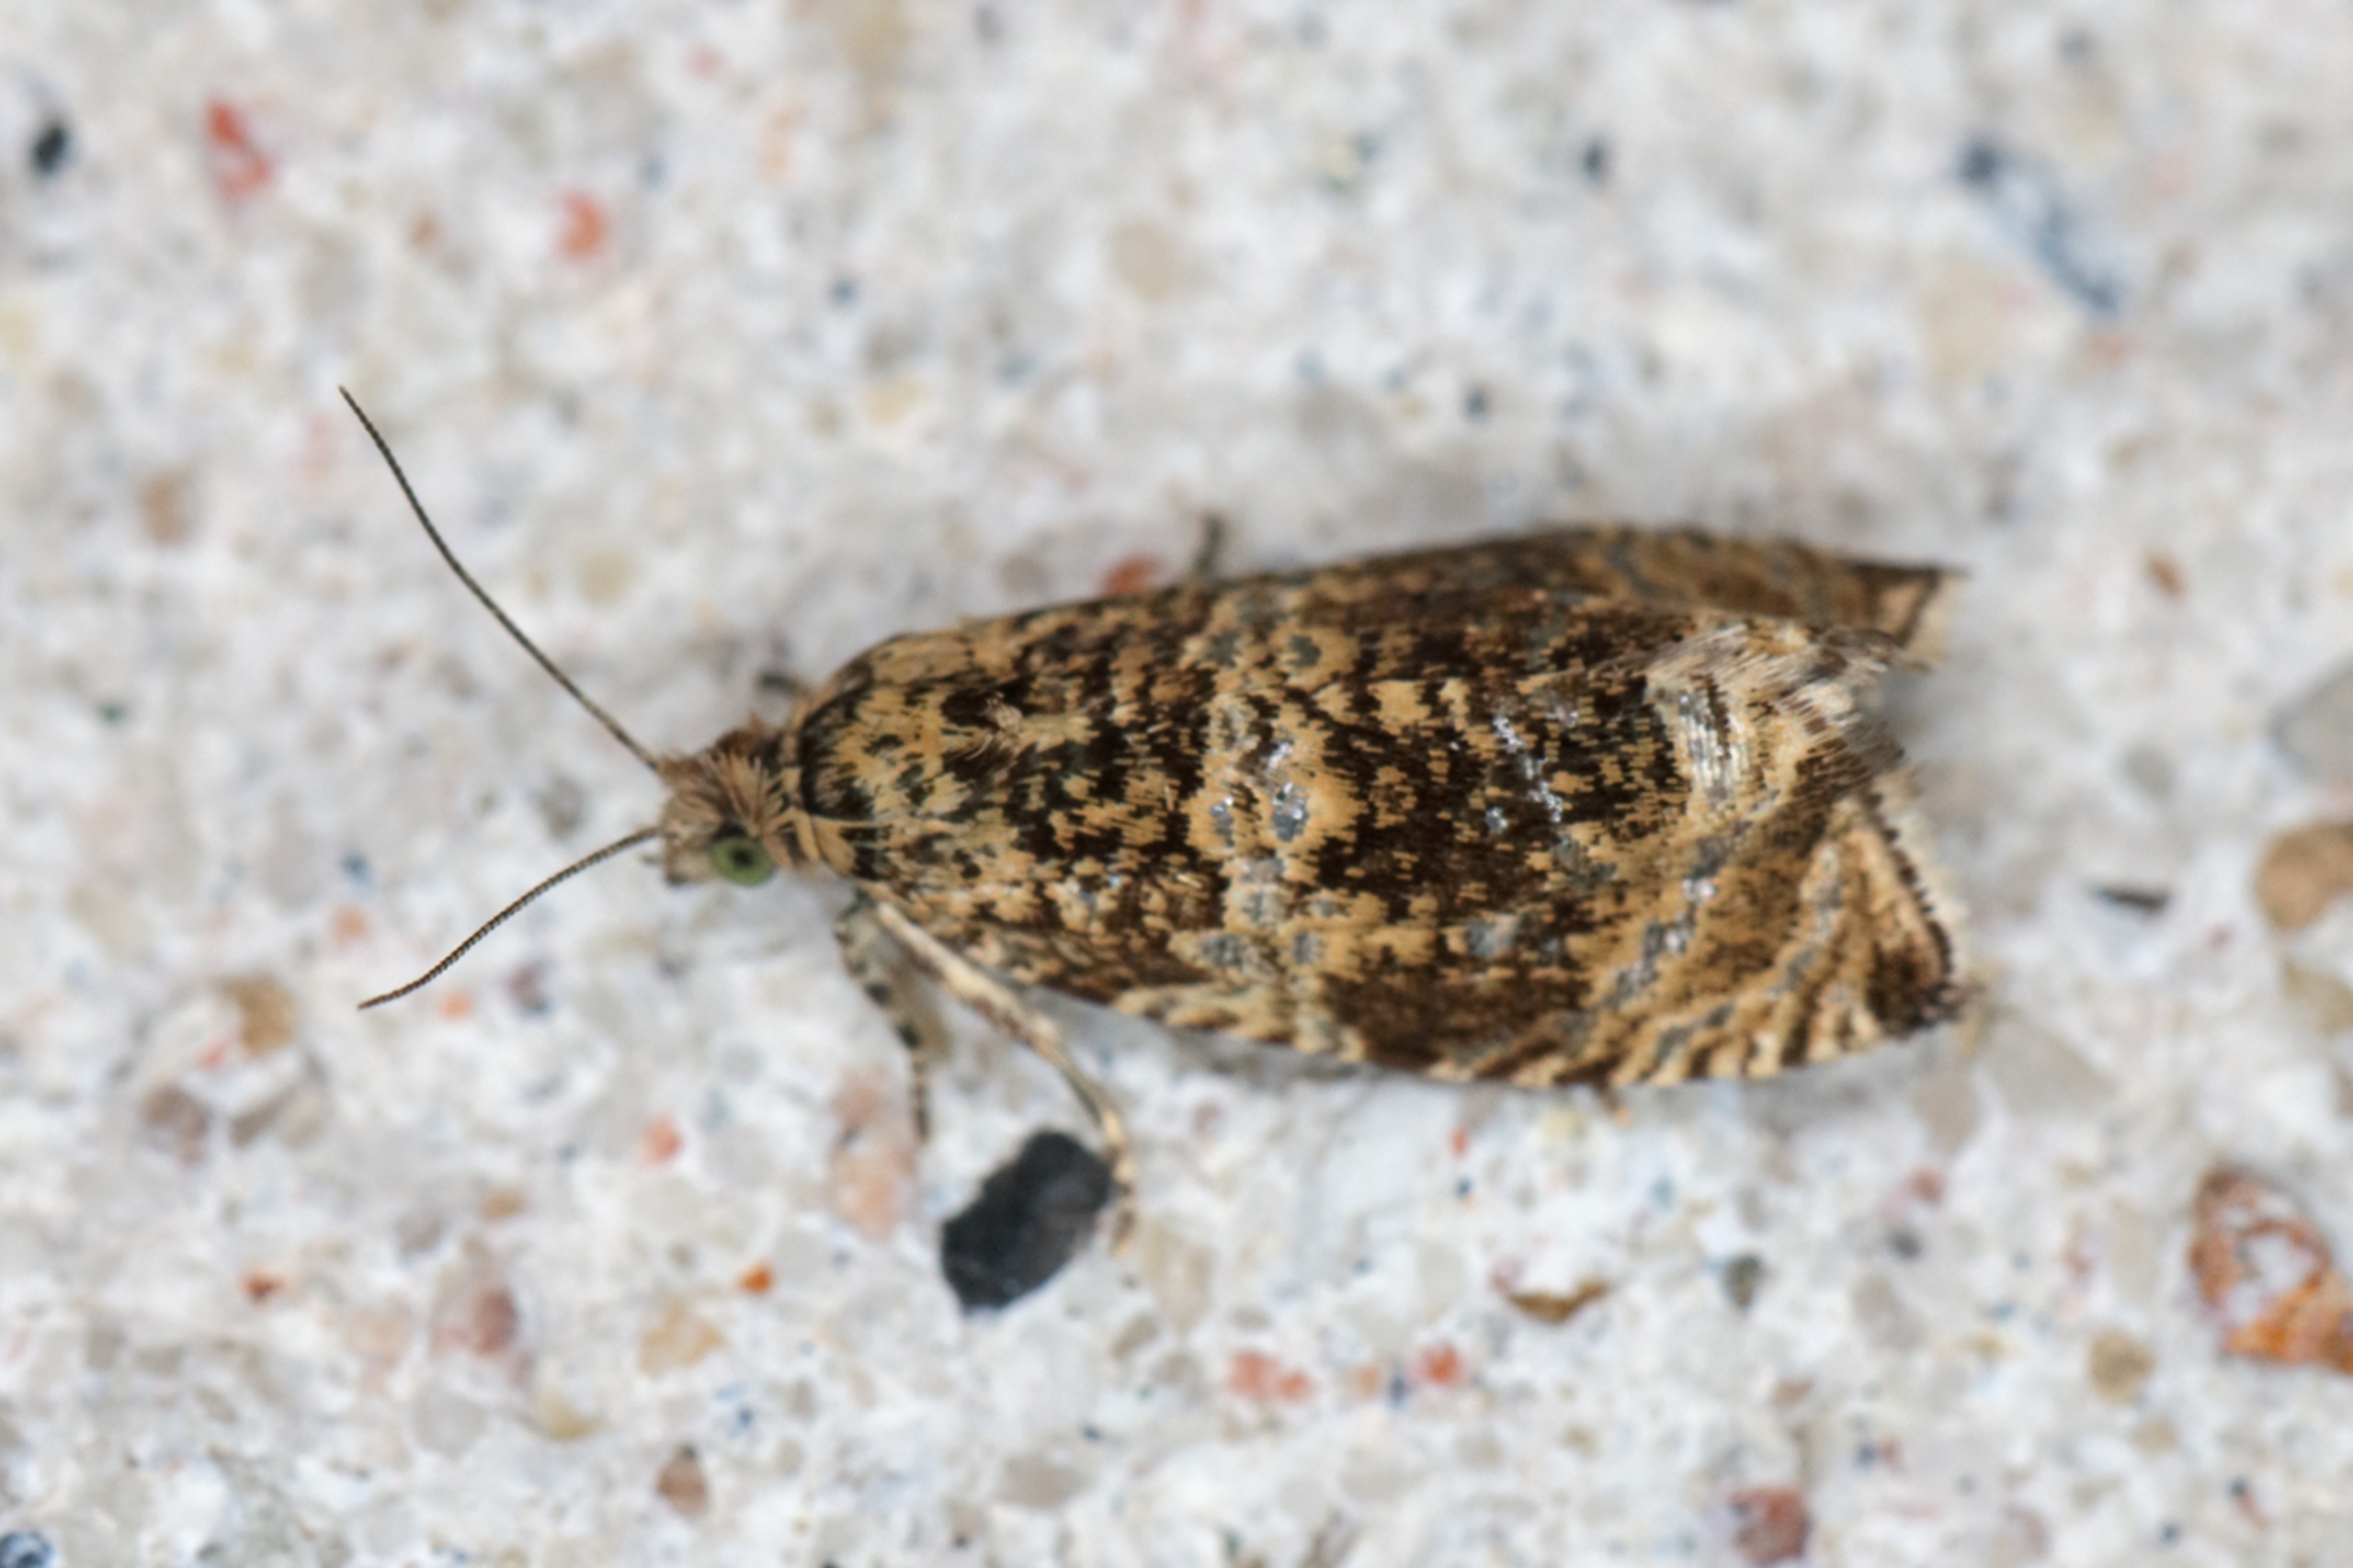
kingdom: Animalia
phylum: Arthropoda
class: Insecta
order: Lepidoptera
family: Tortricidae
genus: Syricoris
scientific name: Syricoris lacunana
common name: Rød jordbærvikler
